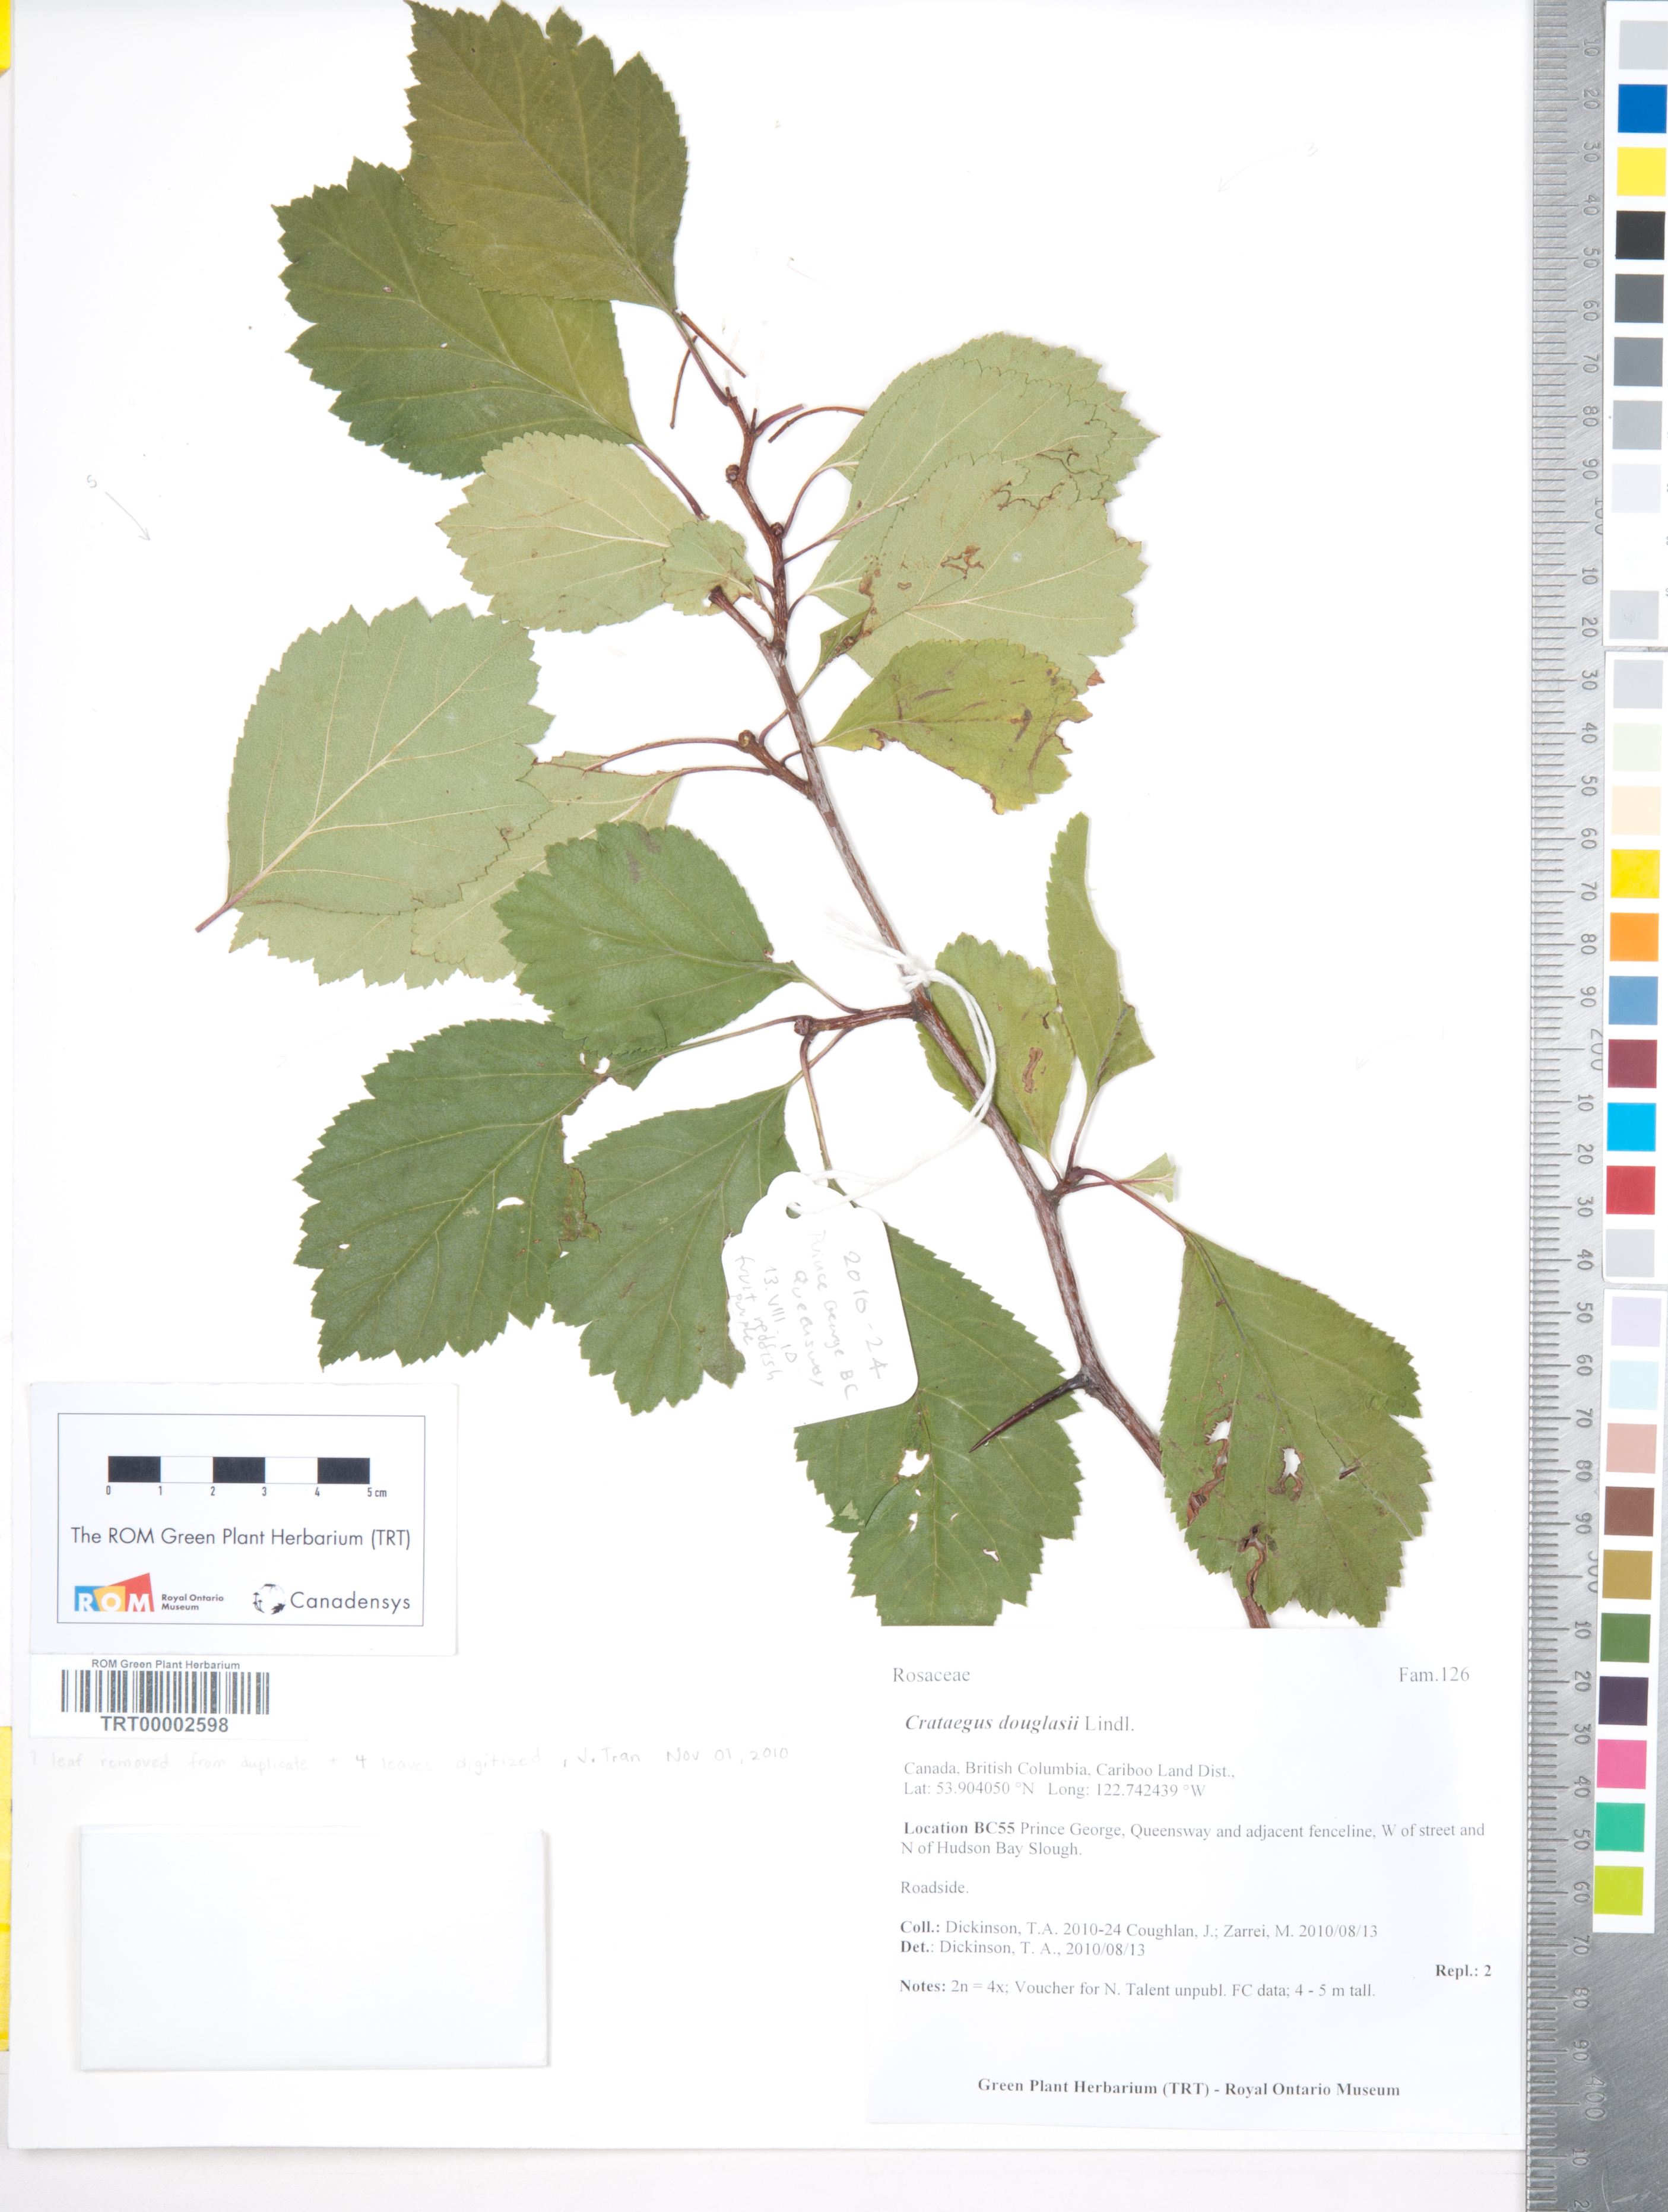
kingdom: Plantae
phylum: Tracheophyta
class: Magnoliopsida
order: Rosales
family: Rosaceae
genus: Crataegus
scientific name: Crataegus douglasii
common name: Black hawthorn
